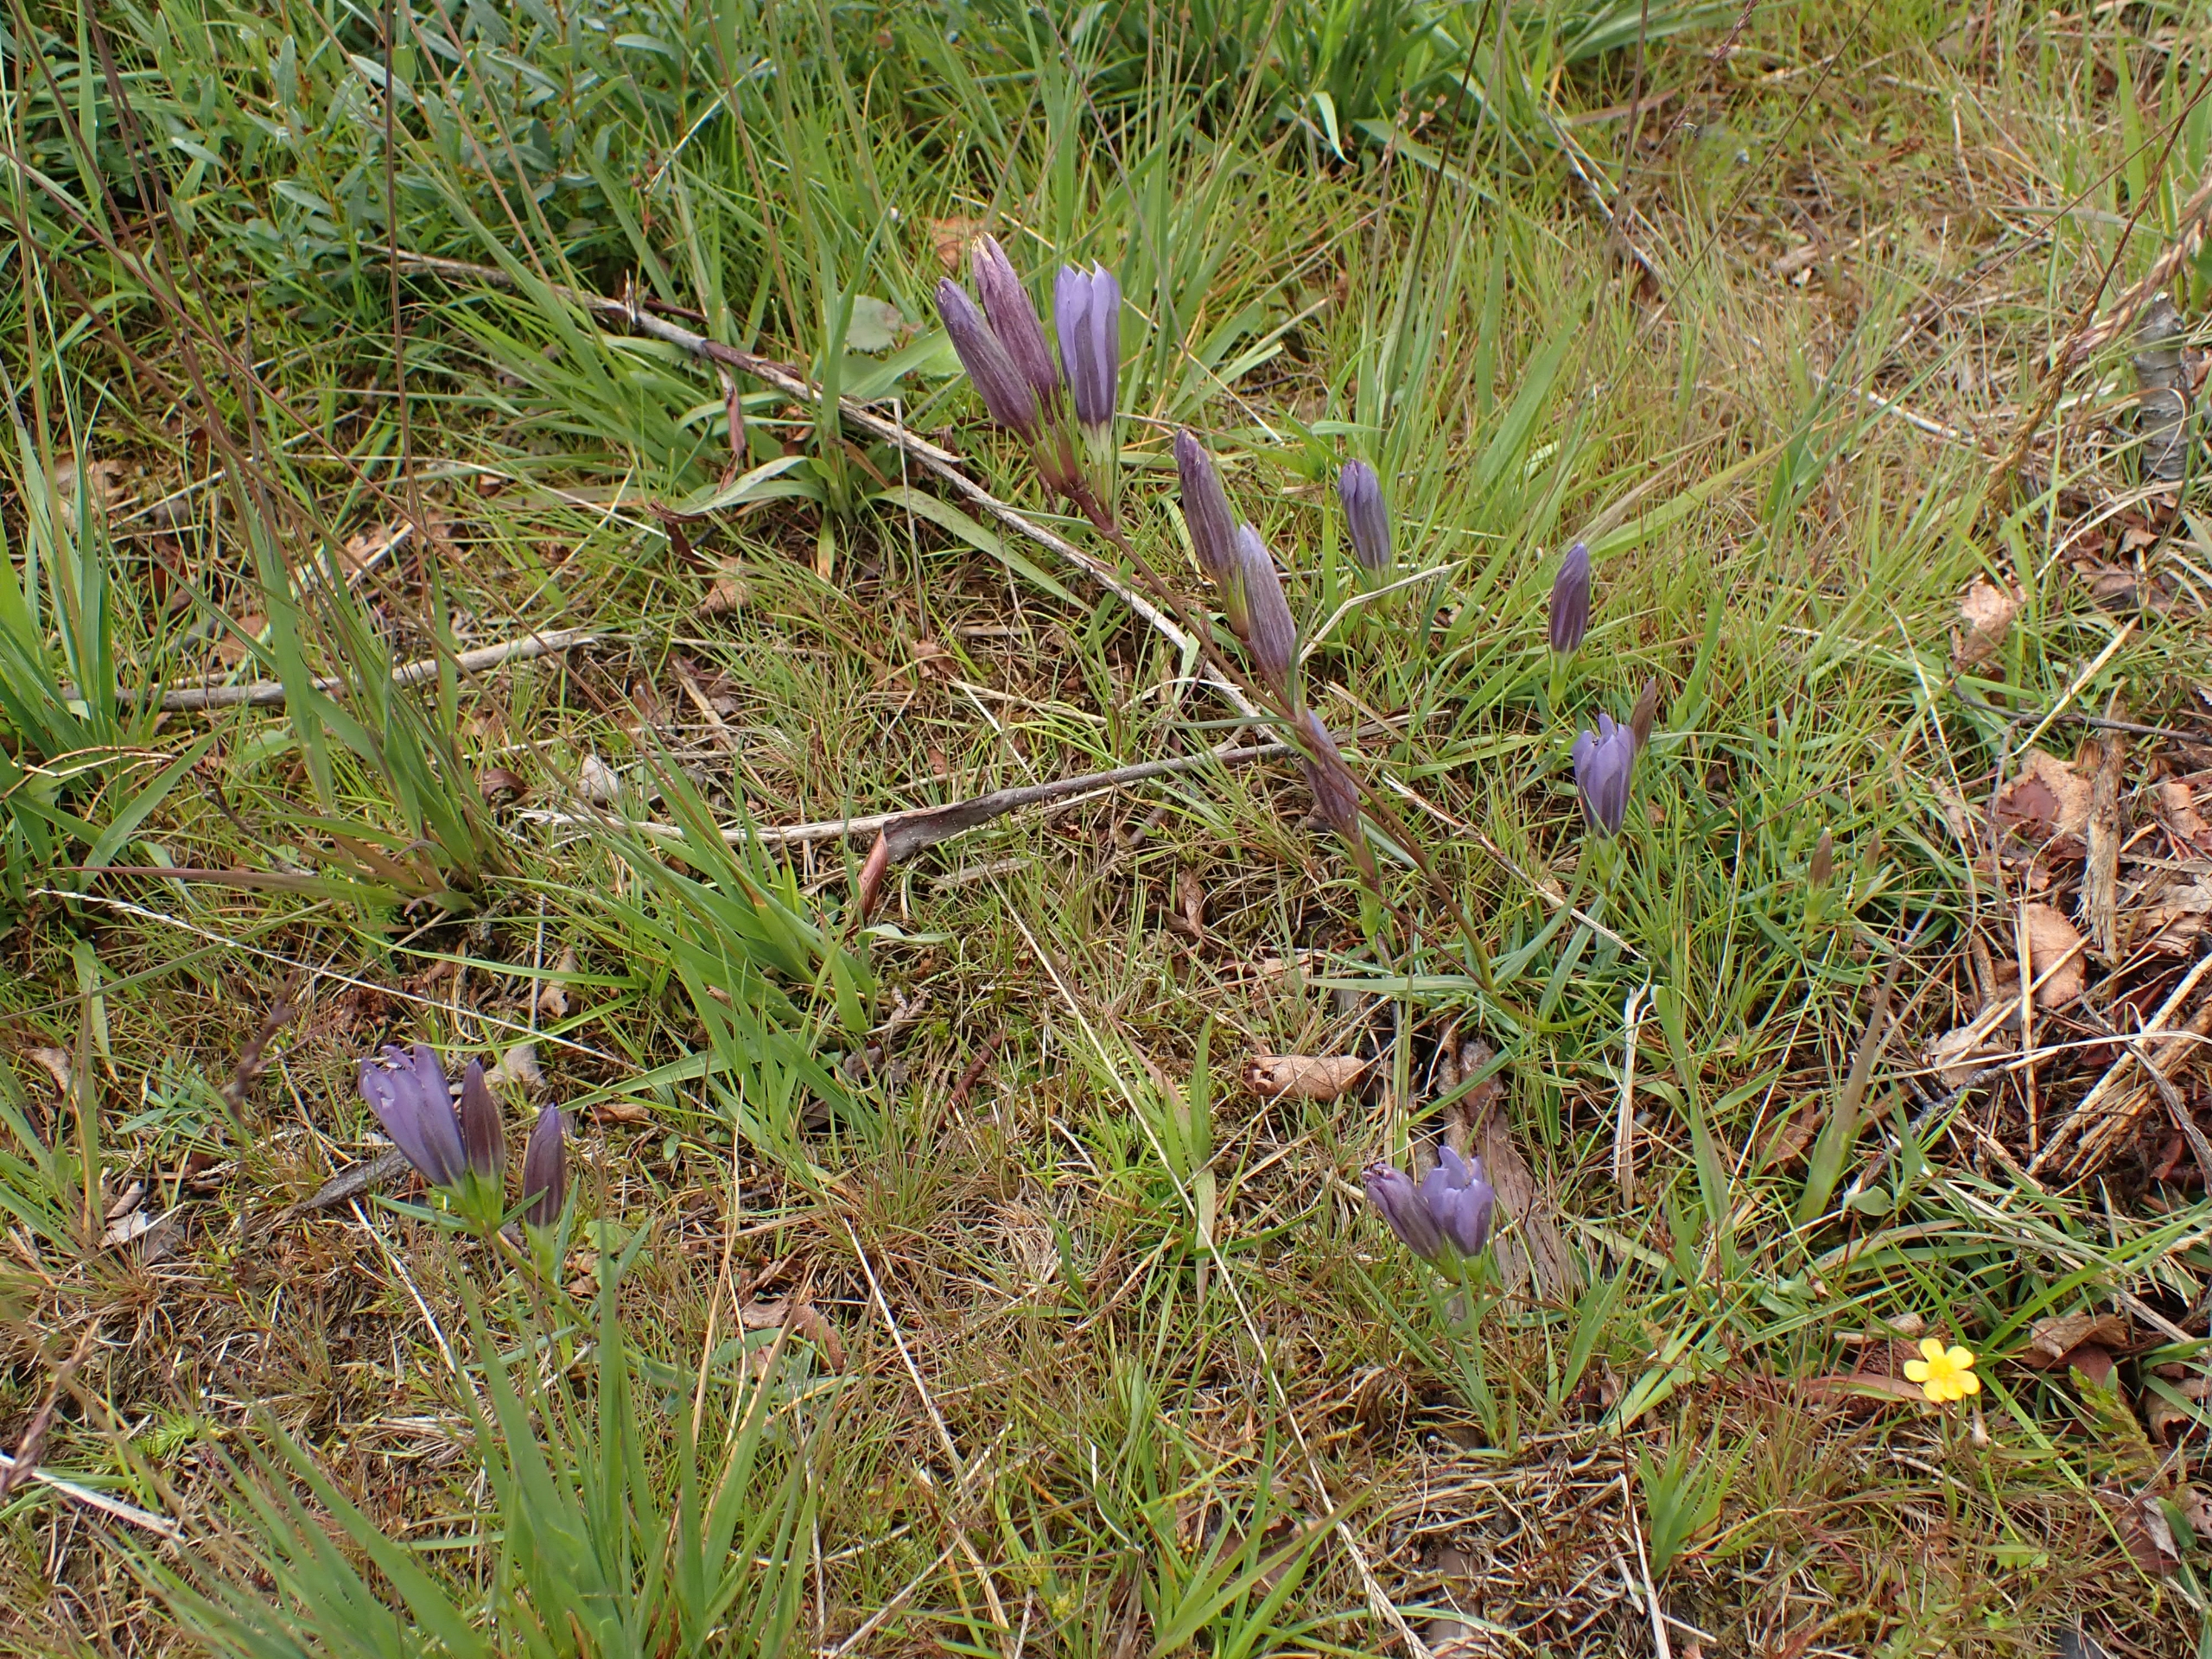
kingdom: Plantae
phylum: Tracheophyta
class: Magnoliopsida
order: Gentianales
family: Gentianaceae
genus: Gentiana
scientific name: Gentiana pneumonanthe
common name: Klokke-ensian
